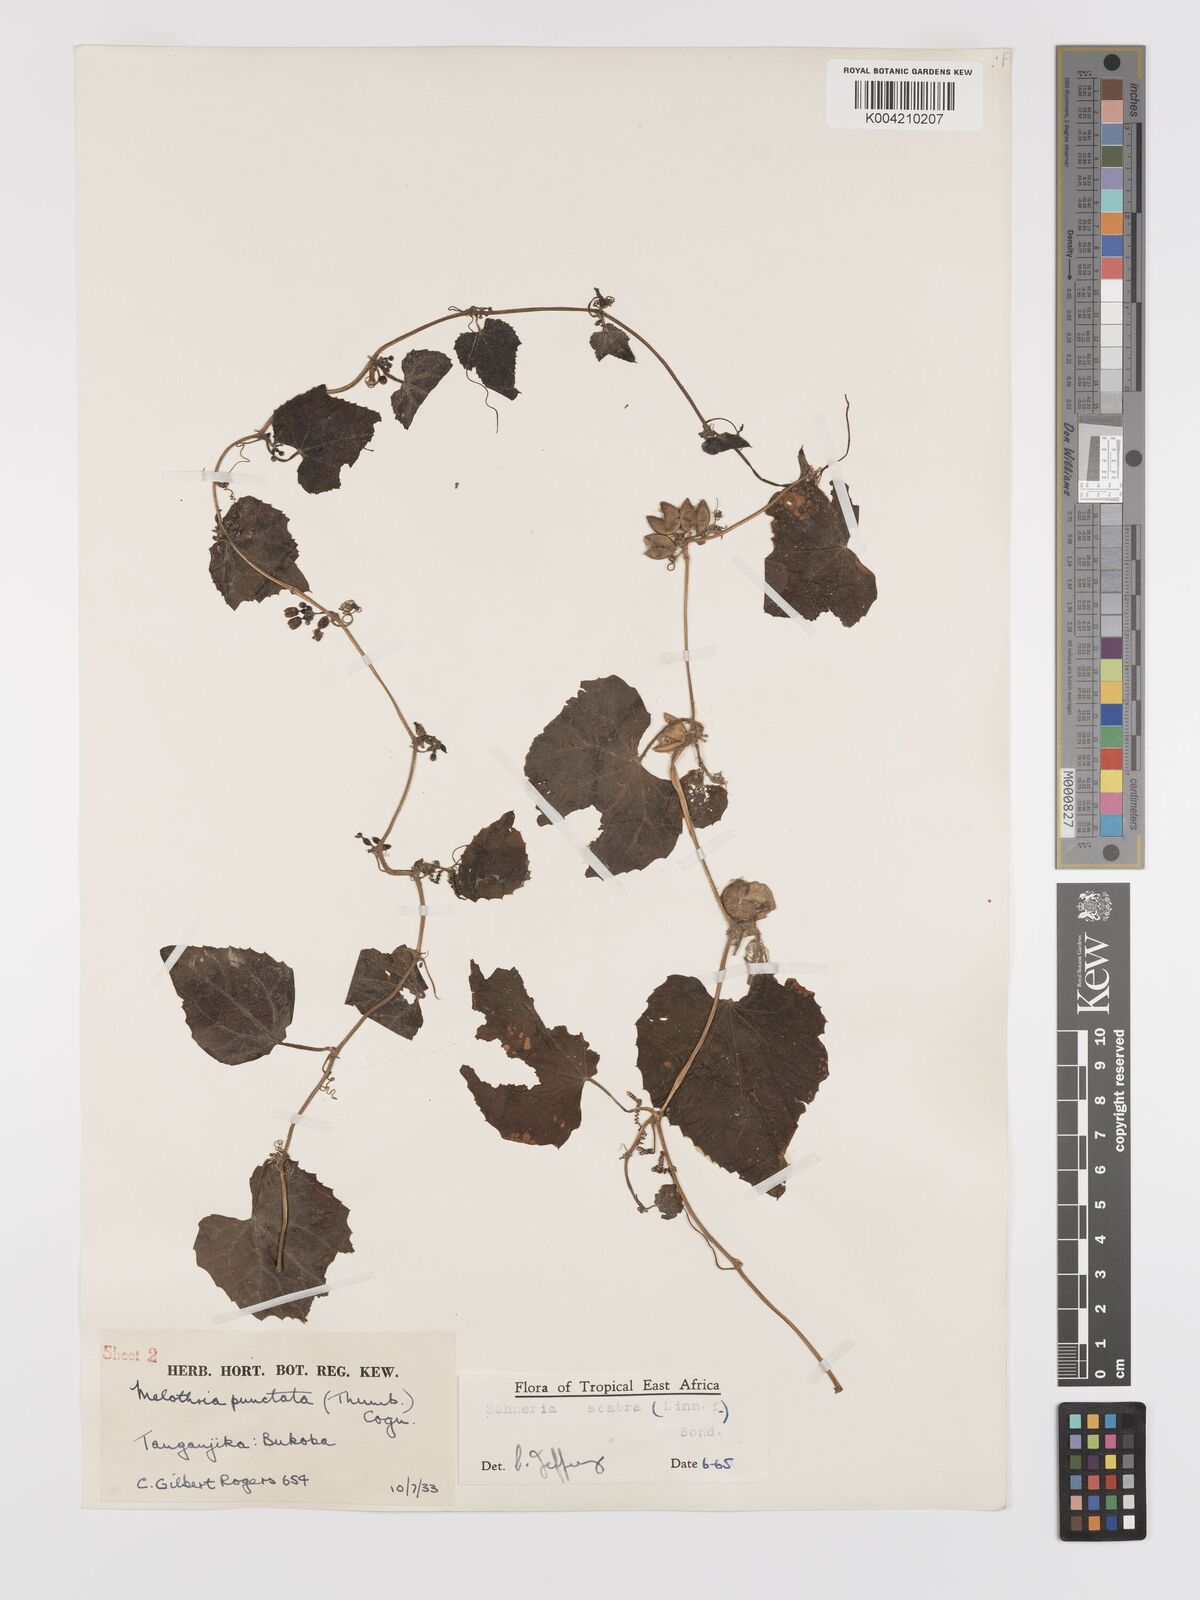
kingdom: Plantae
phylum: Tracheophyta
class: Magnoliopsida
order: Cucurbitales
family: Cucurbitaceae
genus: Zehneria
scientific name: Zehneria scabra
